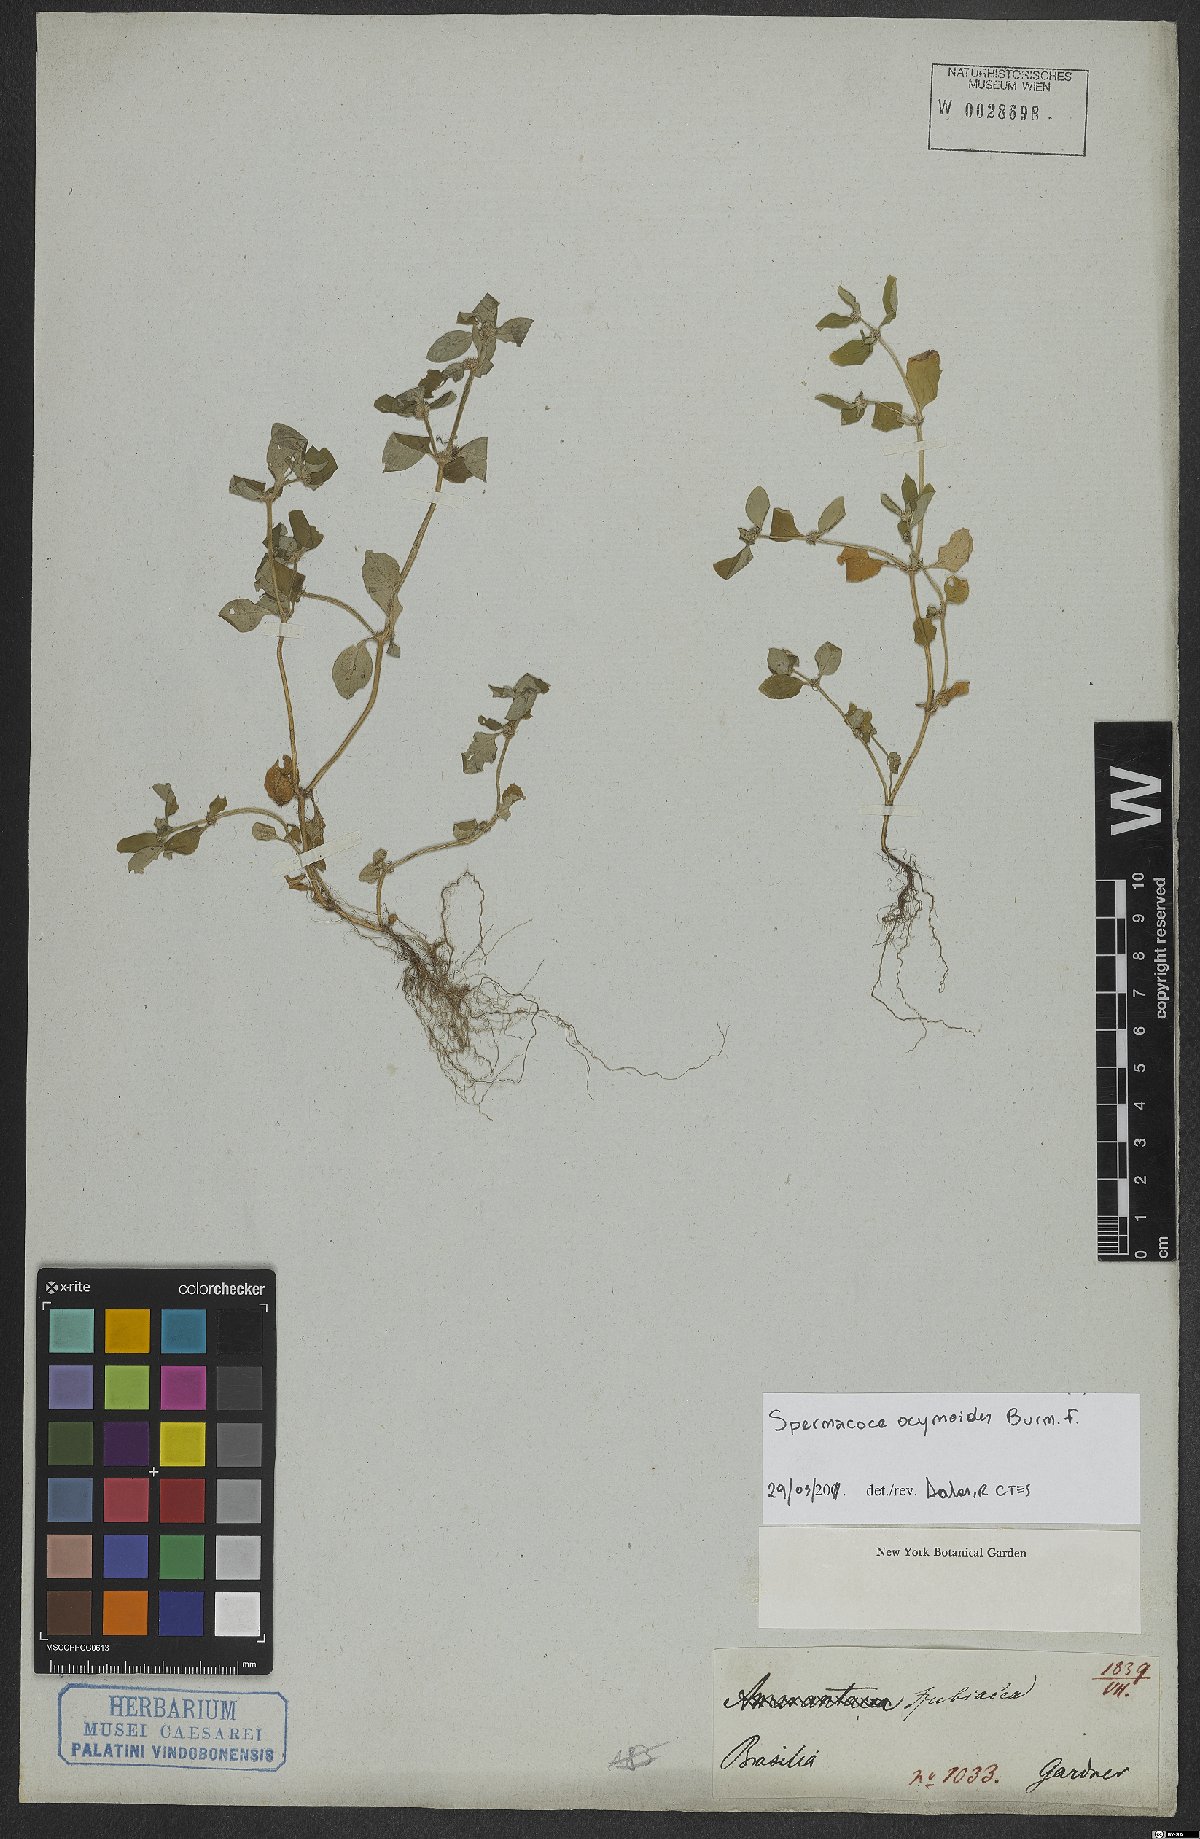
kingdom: Plantae
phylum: Tracheophyta
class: Magnoliopsida
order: Gentianales
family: Rubiaceae
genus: Spermacoce
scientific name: Spermacoce ocymoides
